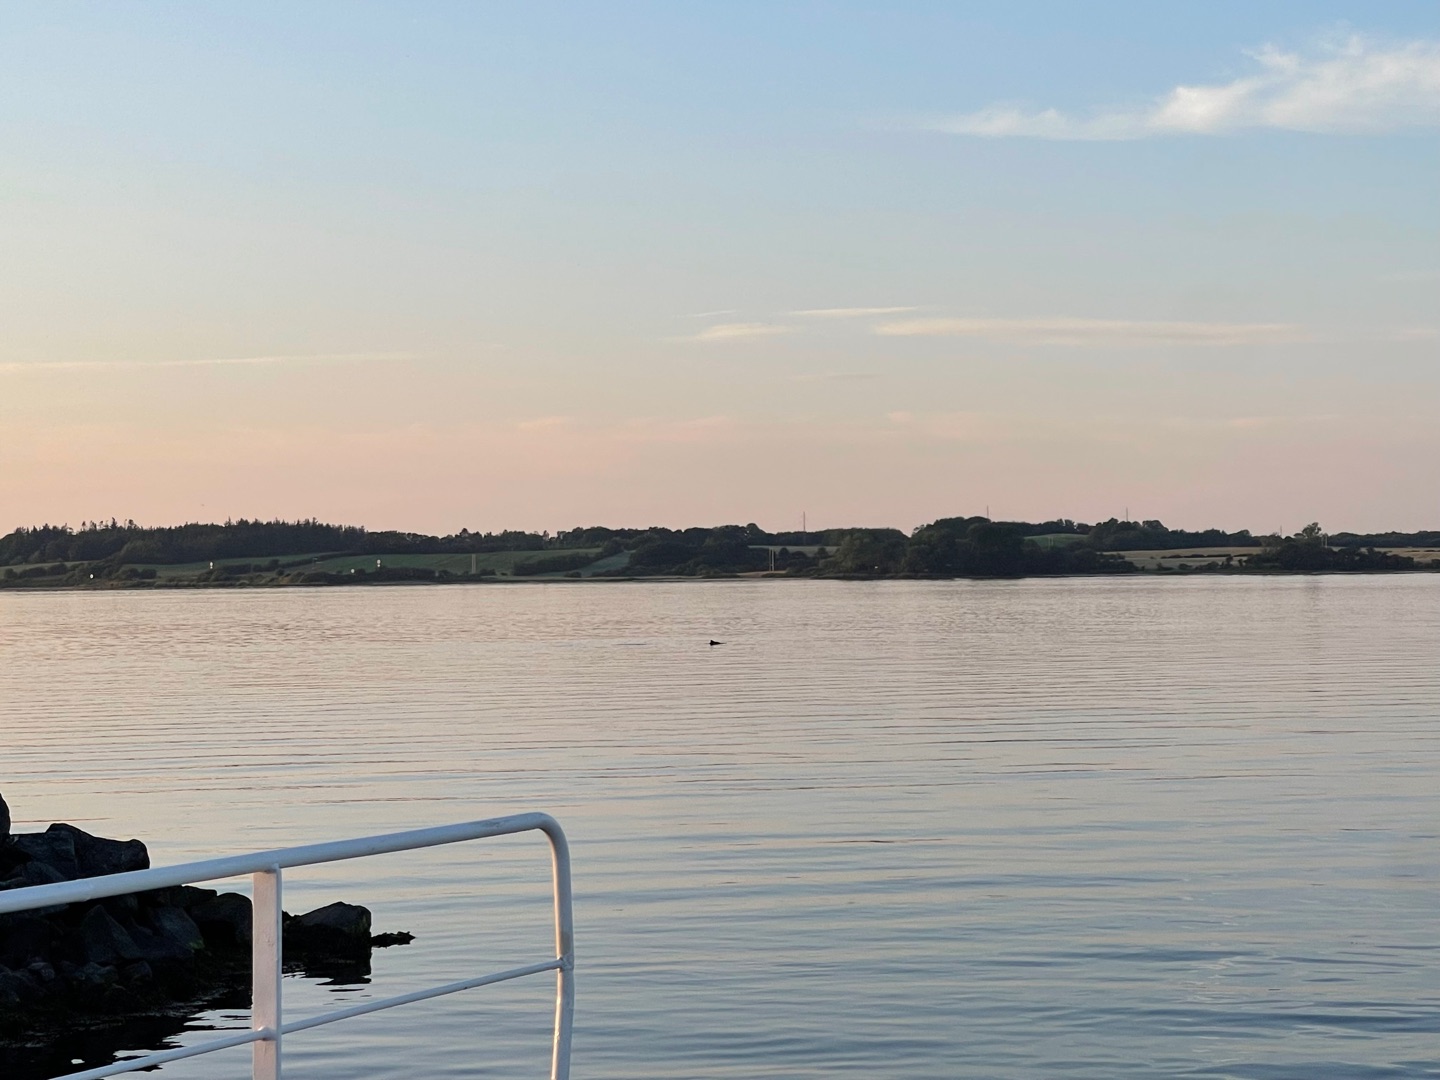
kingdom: Animalia
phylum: Chordata
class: Mammalia
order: Cetacea
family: Phocoenidae
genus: Phocoena
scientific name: Phocoena phocoena
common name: Marsvin
